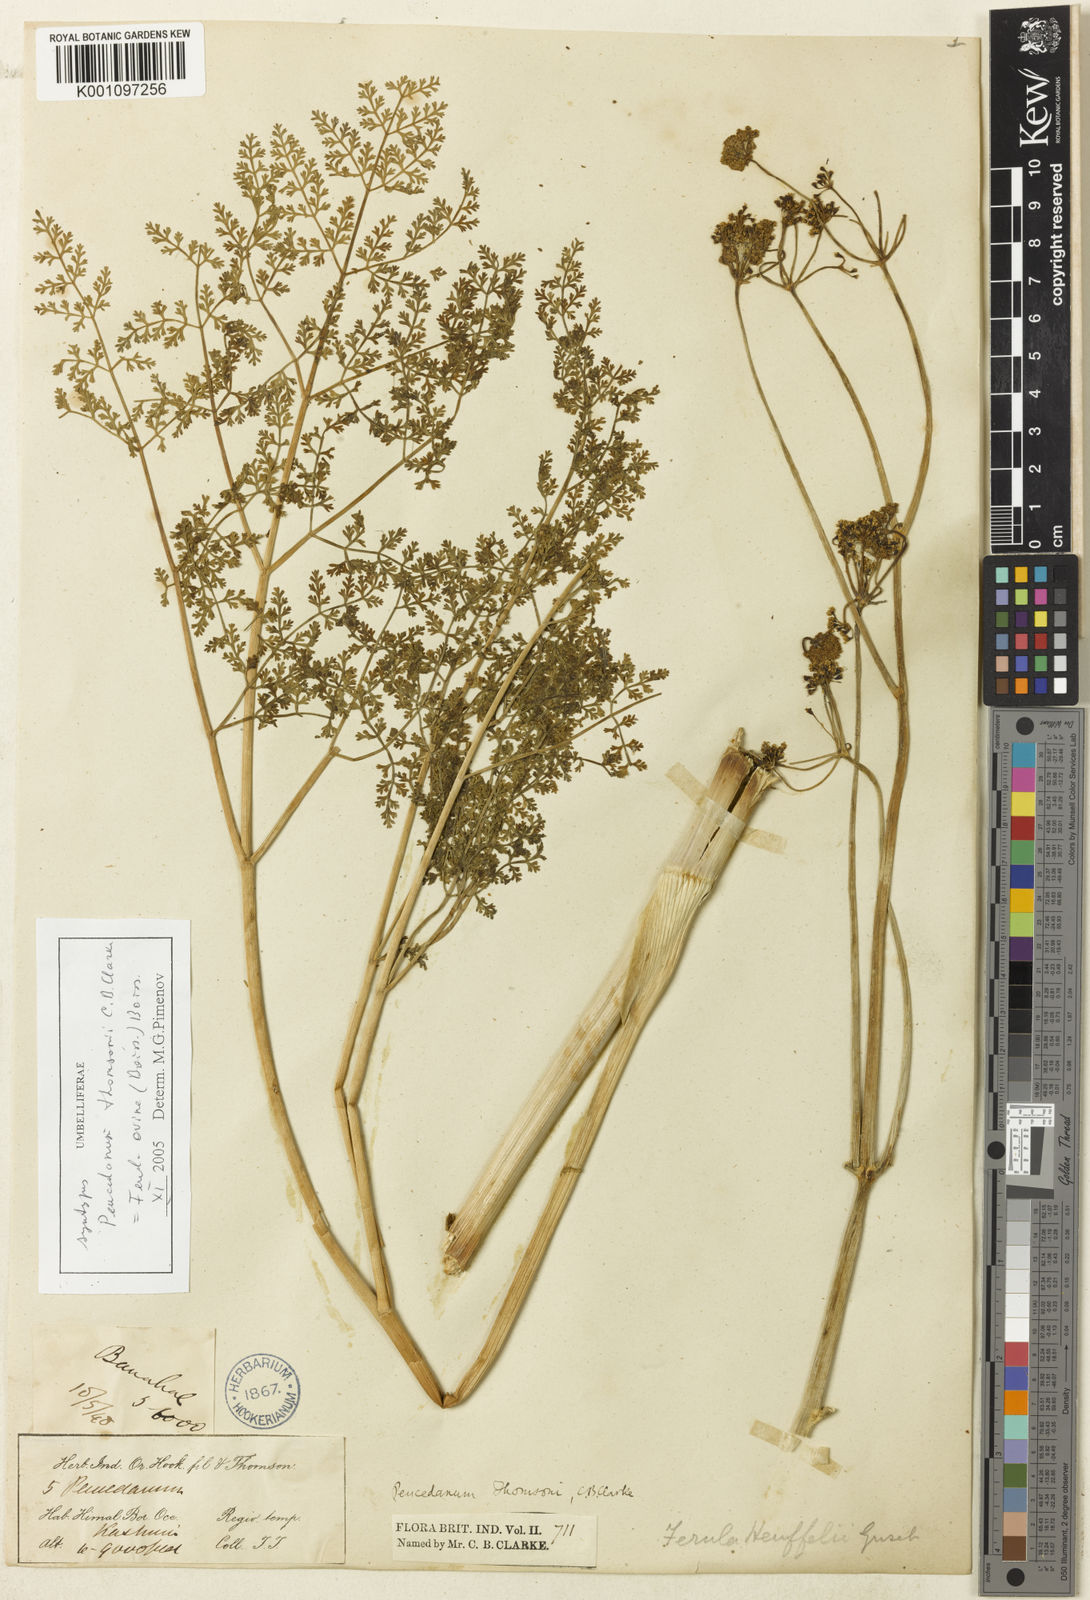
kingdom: Plantae
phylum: Tracheophyta
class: Magnoliopsida
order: Apiales
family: Apiaceae
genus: Ferula
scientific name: Ferula
